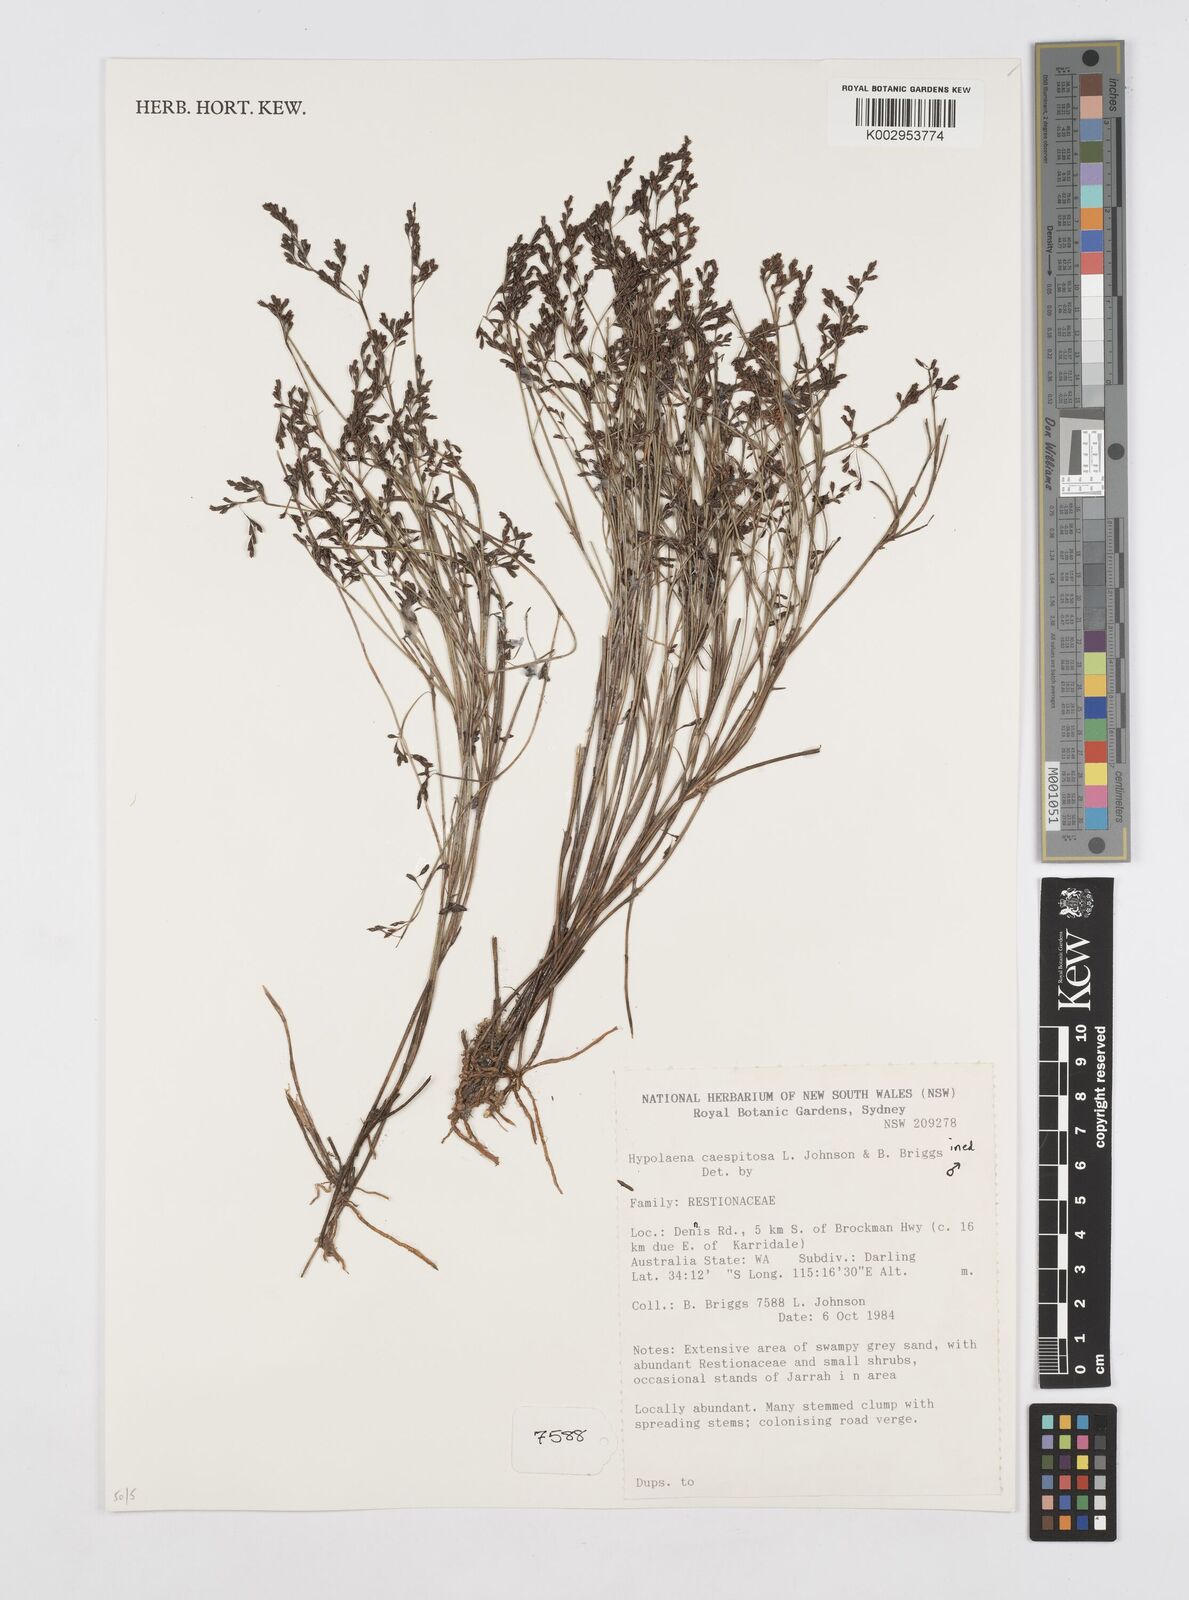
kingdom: Plantae
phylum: Tracheophyta
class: Liliopsida
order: Poales
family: Restionaceae
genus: Hypolaena
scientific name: Hypolaena caespitosa
